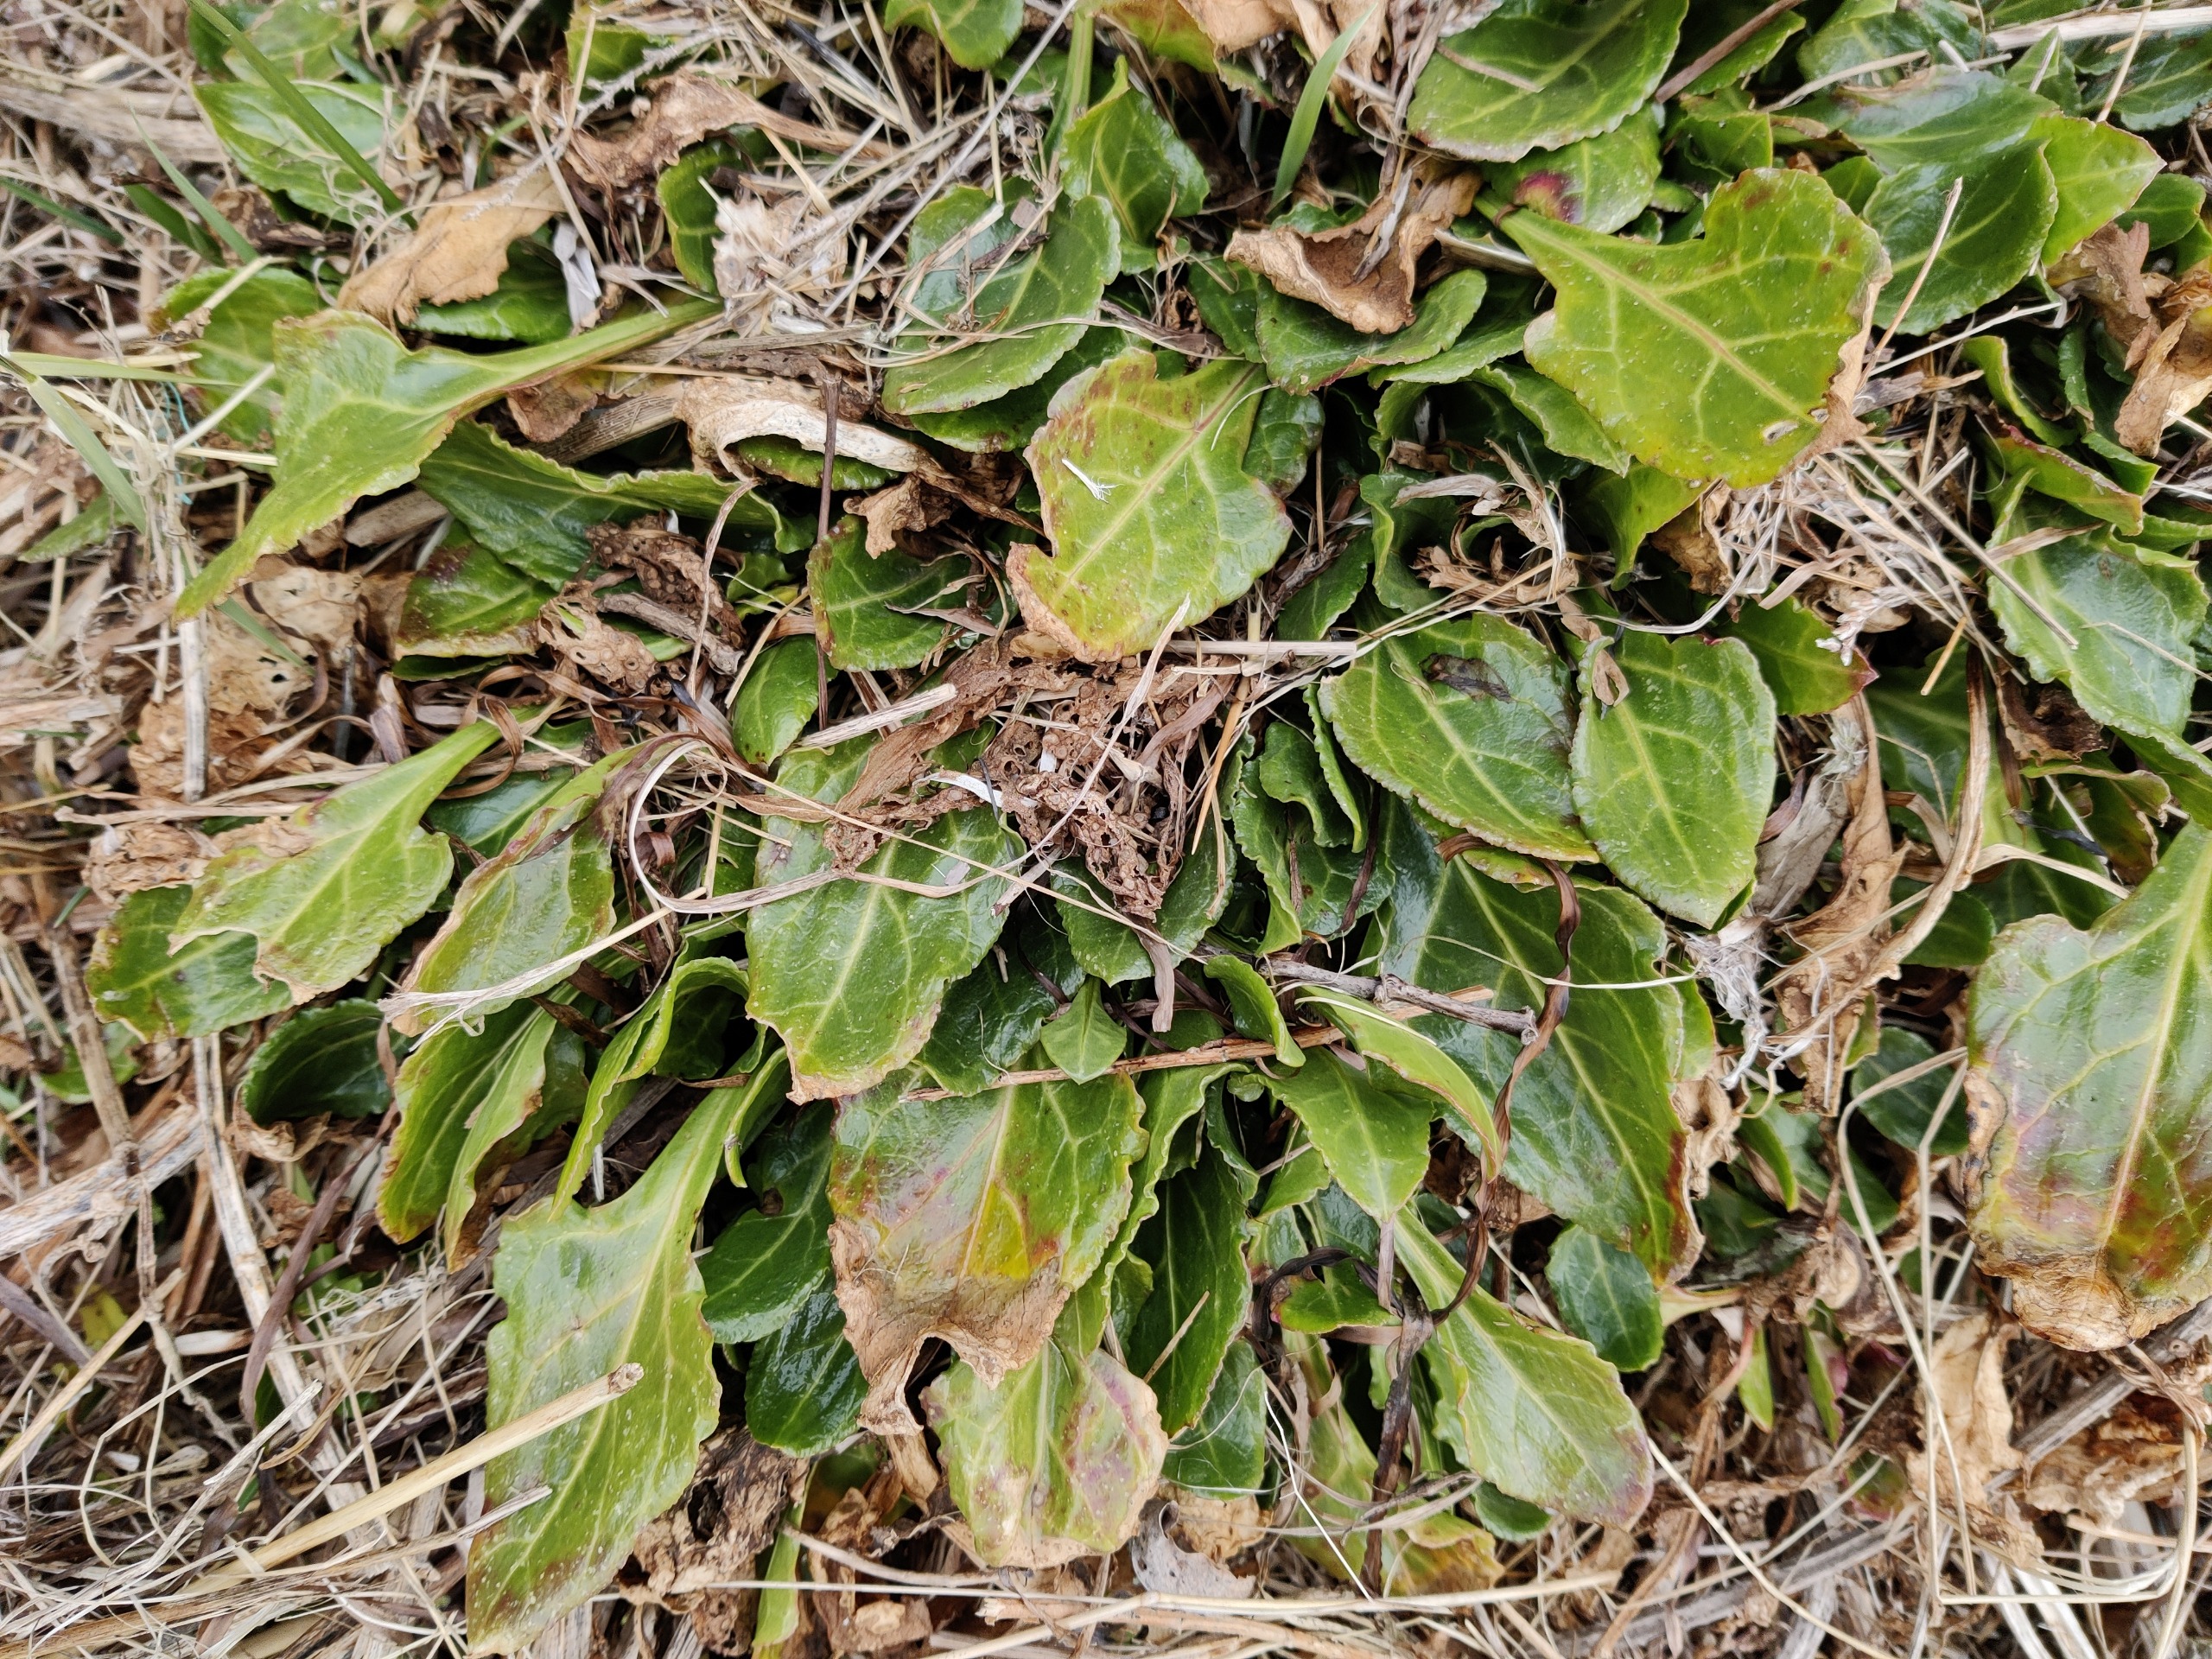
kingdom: Plantae
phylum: Tracheophyta
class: Magnoliopsida
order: Caryophyllales
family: Amaranthaceae
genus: Beta
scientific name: Beta maritima
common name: Strand-bede
